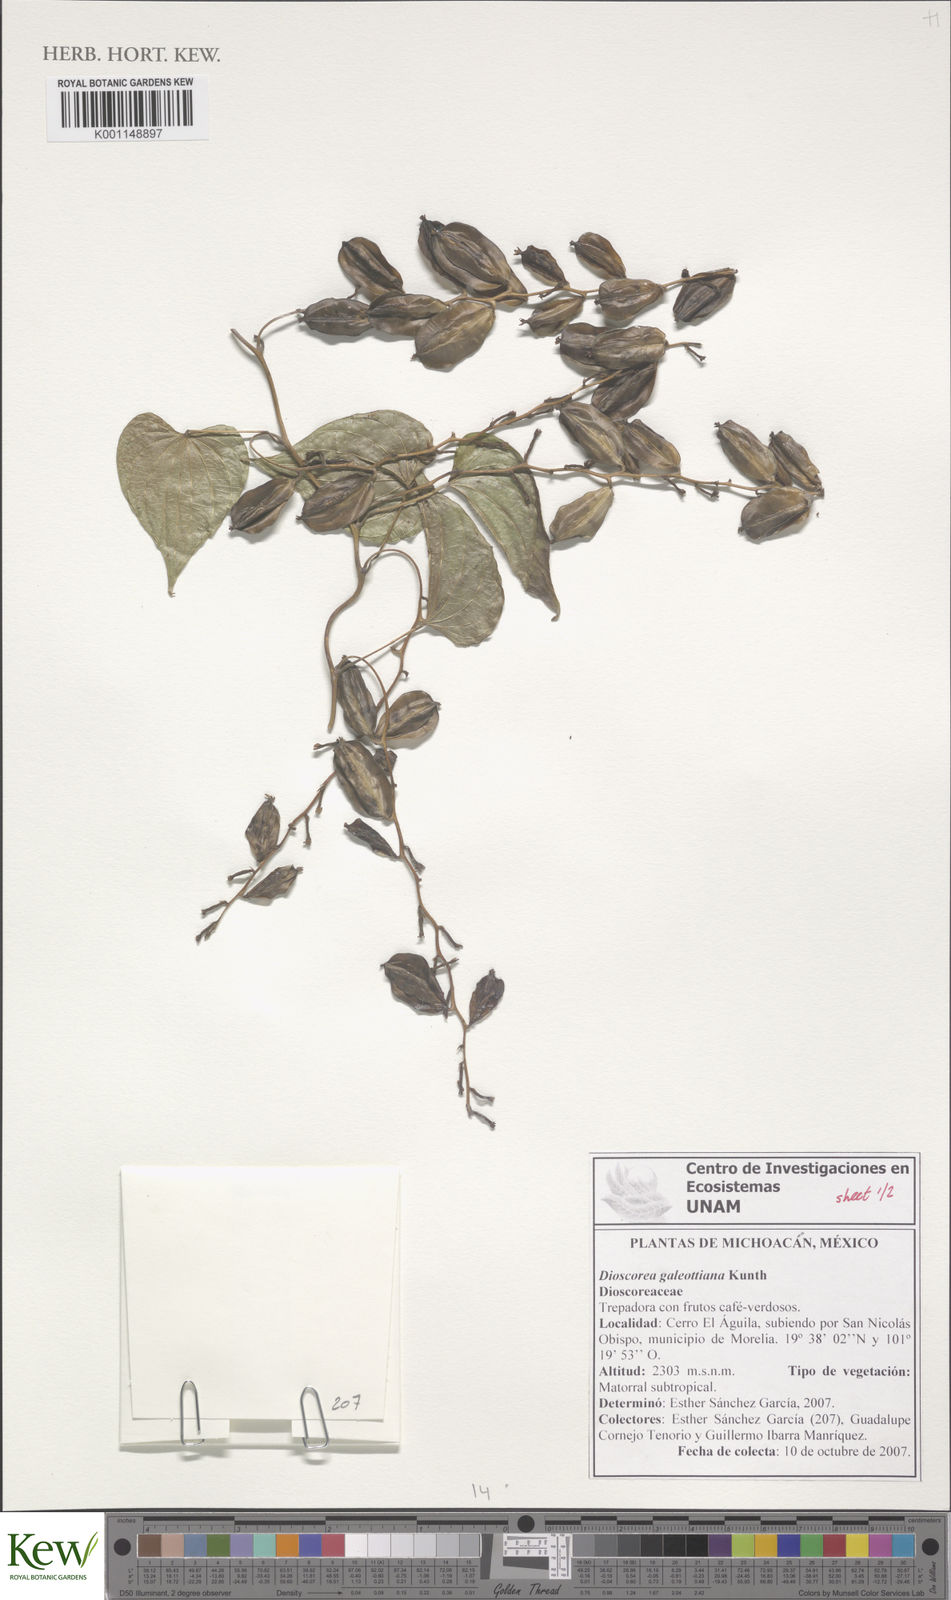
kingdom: Plantae
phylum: Tracheophyta
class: Liliopsida
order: Dioscoreales
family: Dioscoreaceae
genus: Dioscorea
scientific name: Dioscorea galeottiana
